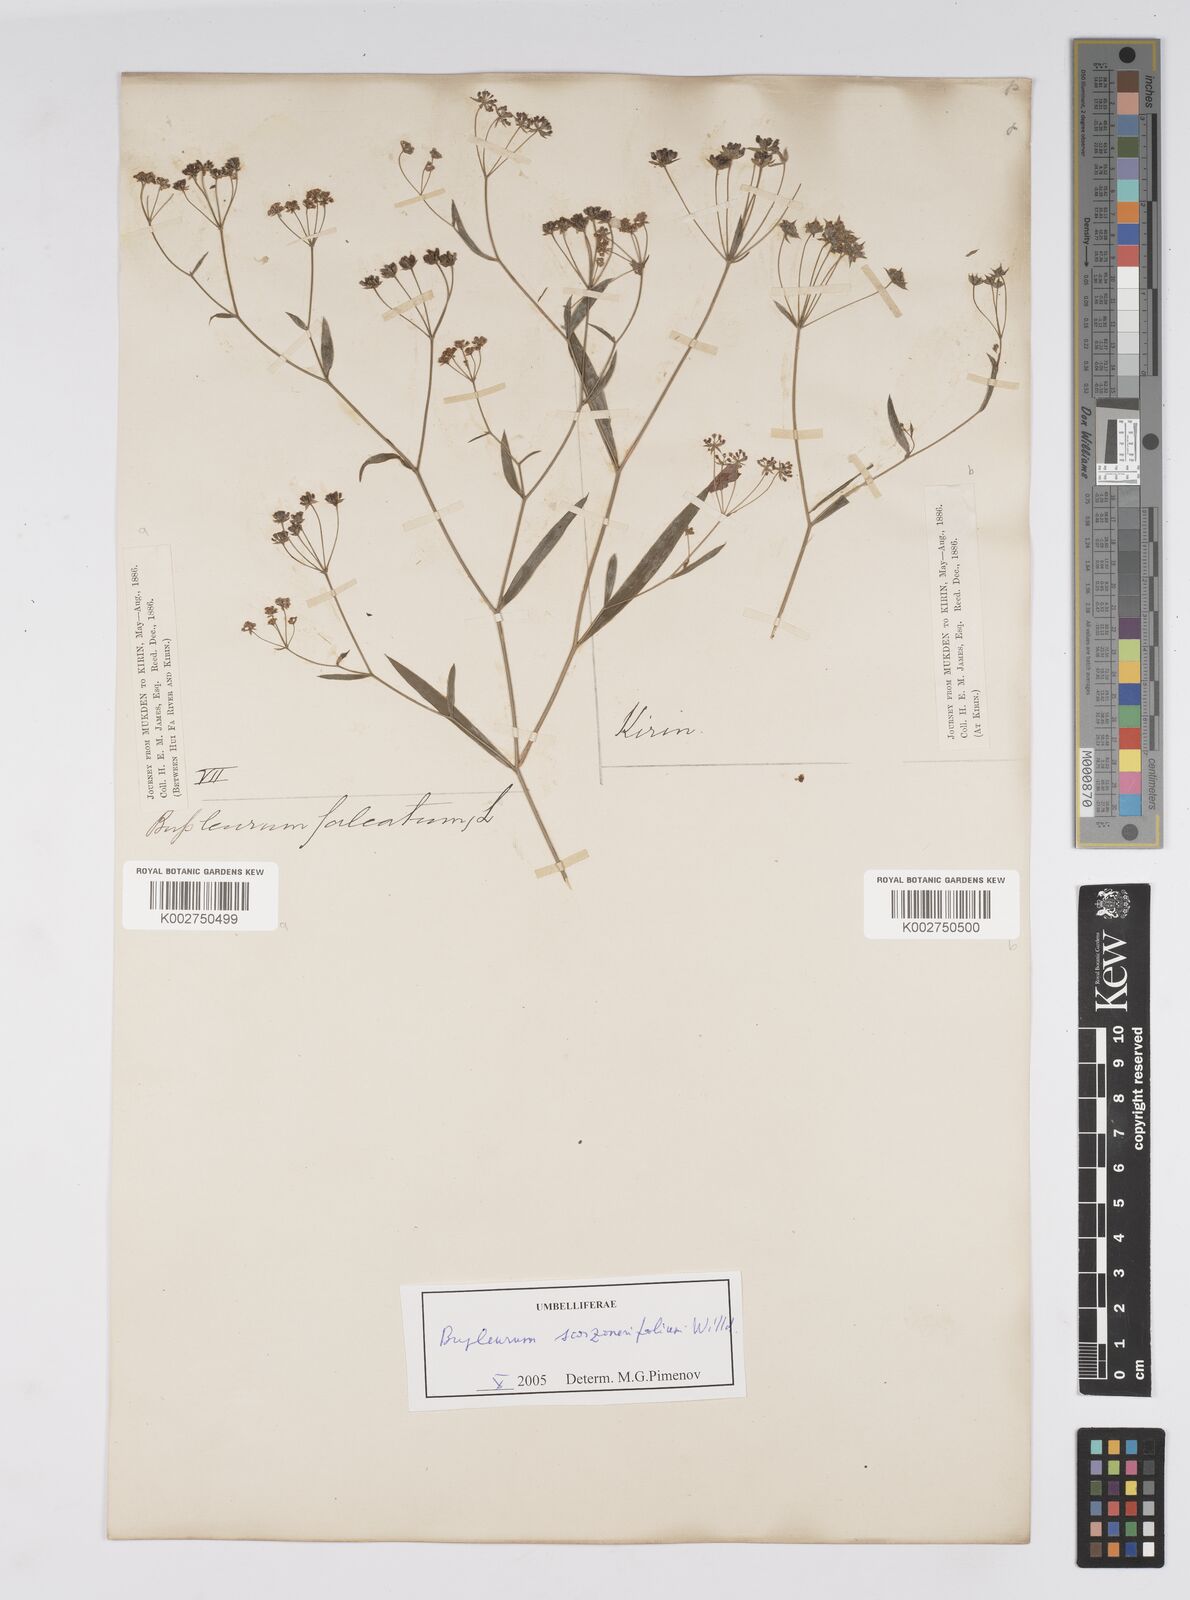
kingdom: Plantae
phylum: Tracheophyta
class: Magnoliopsida
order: Apiales
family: Apiaceae
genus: Bupleurum
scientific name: Bupleurum krylovianum
